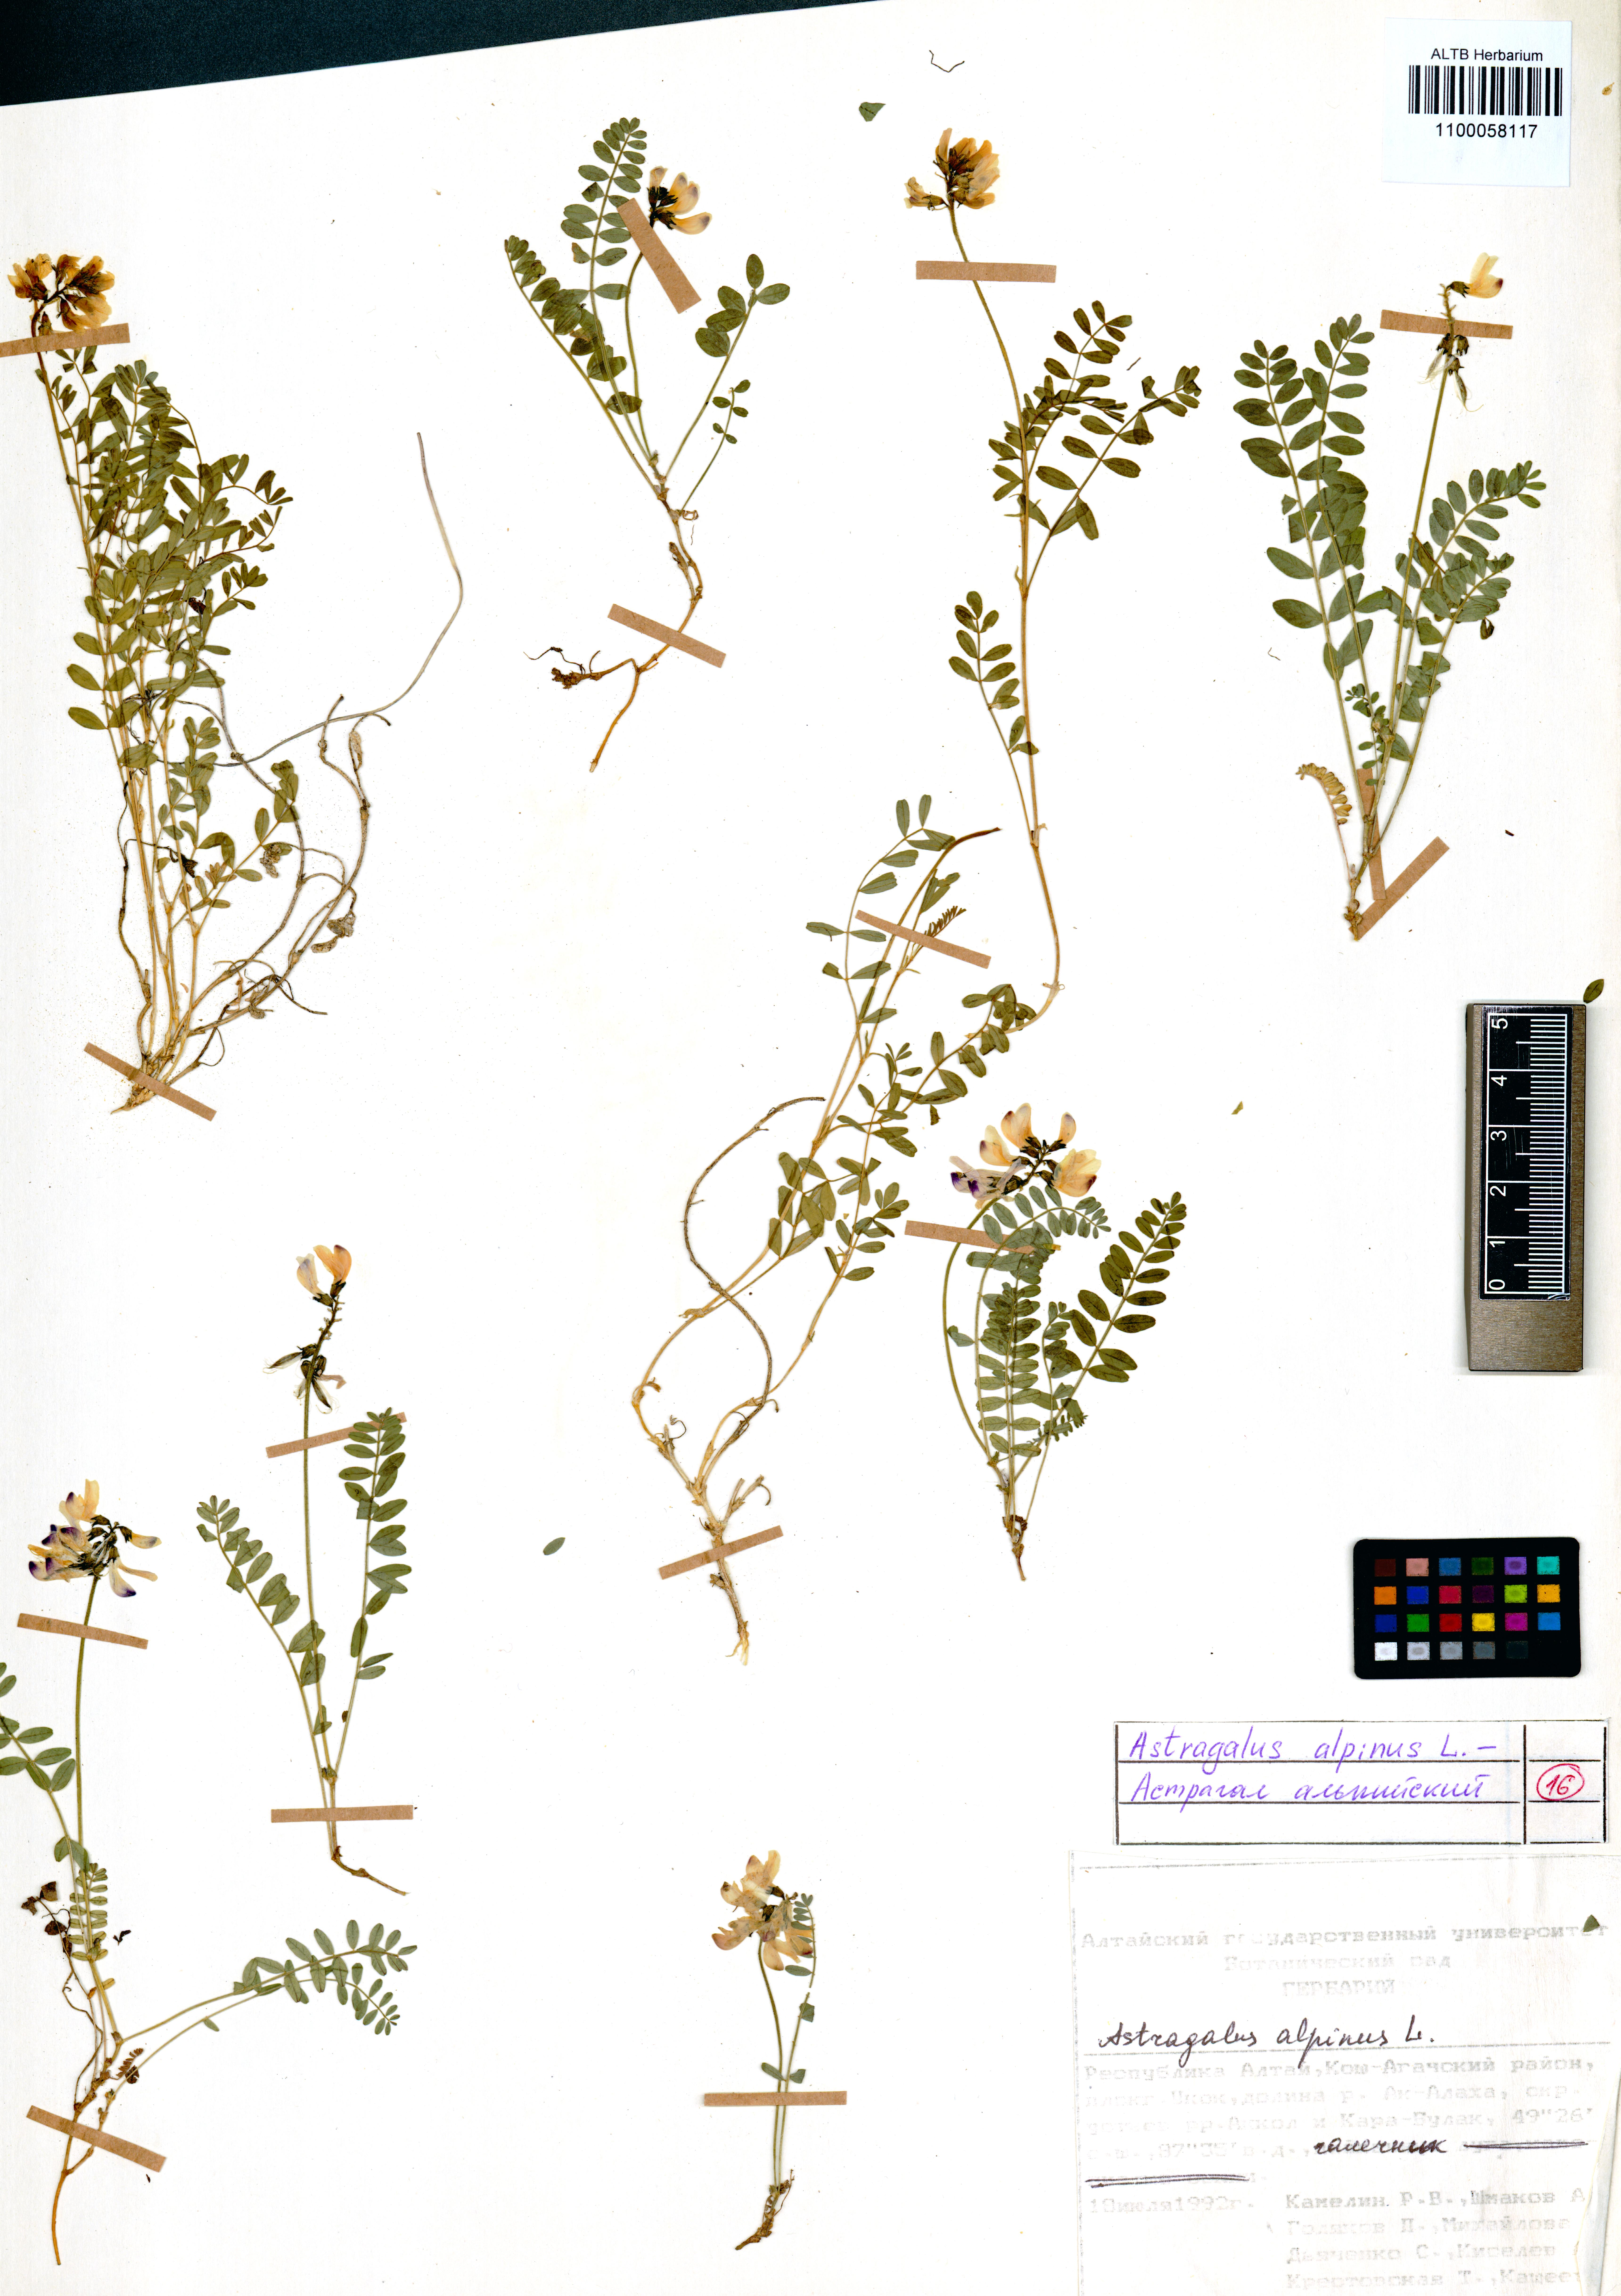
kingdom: Plantae
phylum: Tracheophyta
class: Magnoliopsida
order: Fabales
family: Fabaceae
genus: Astragalus
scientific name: Astragalus alopecurus
